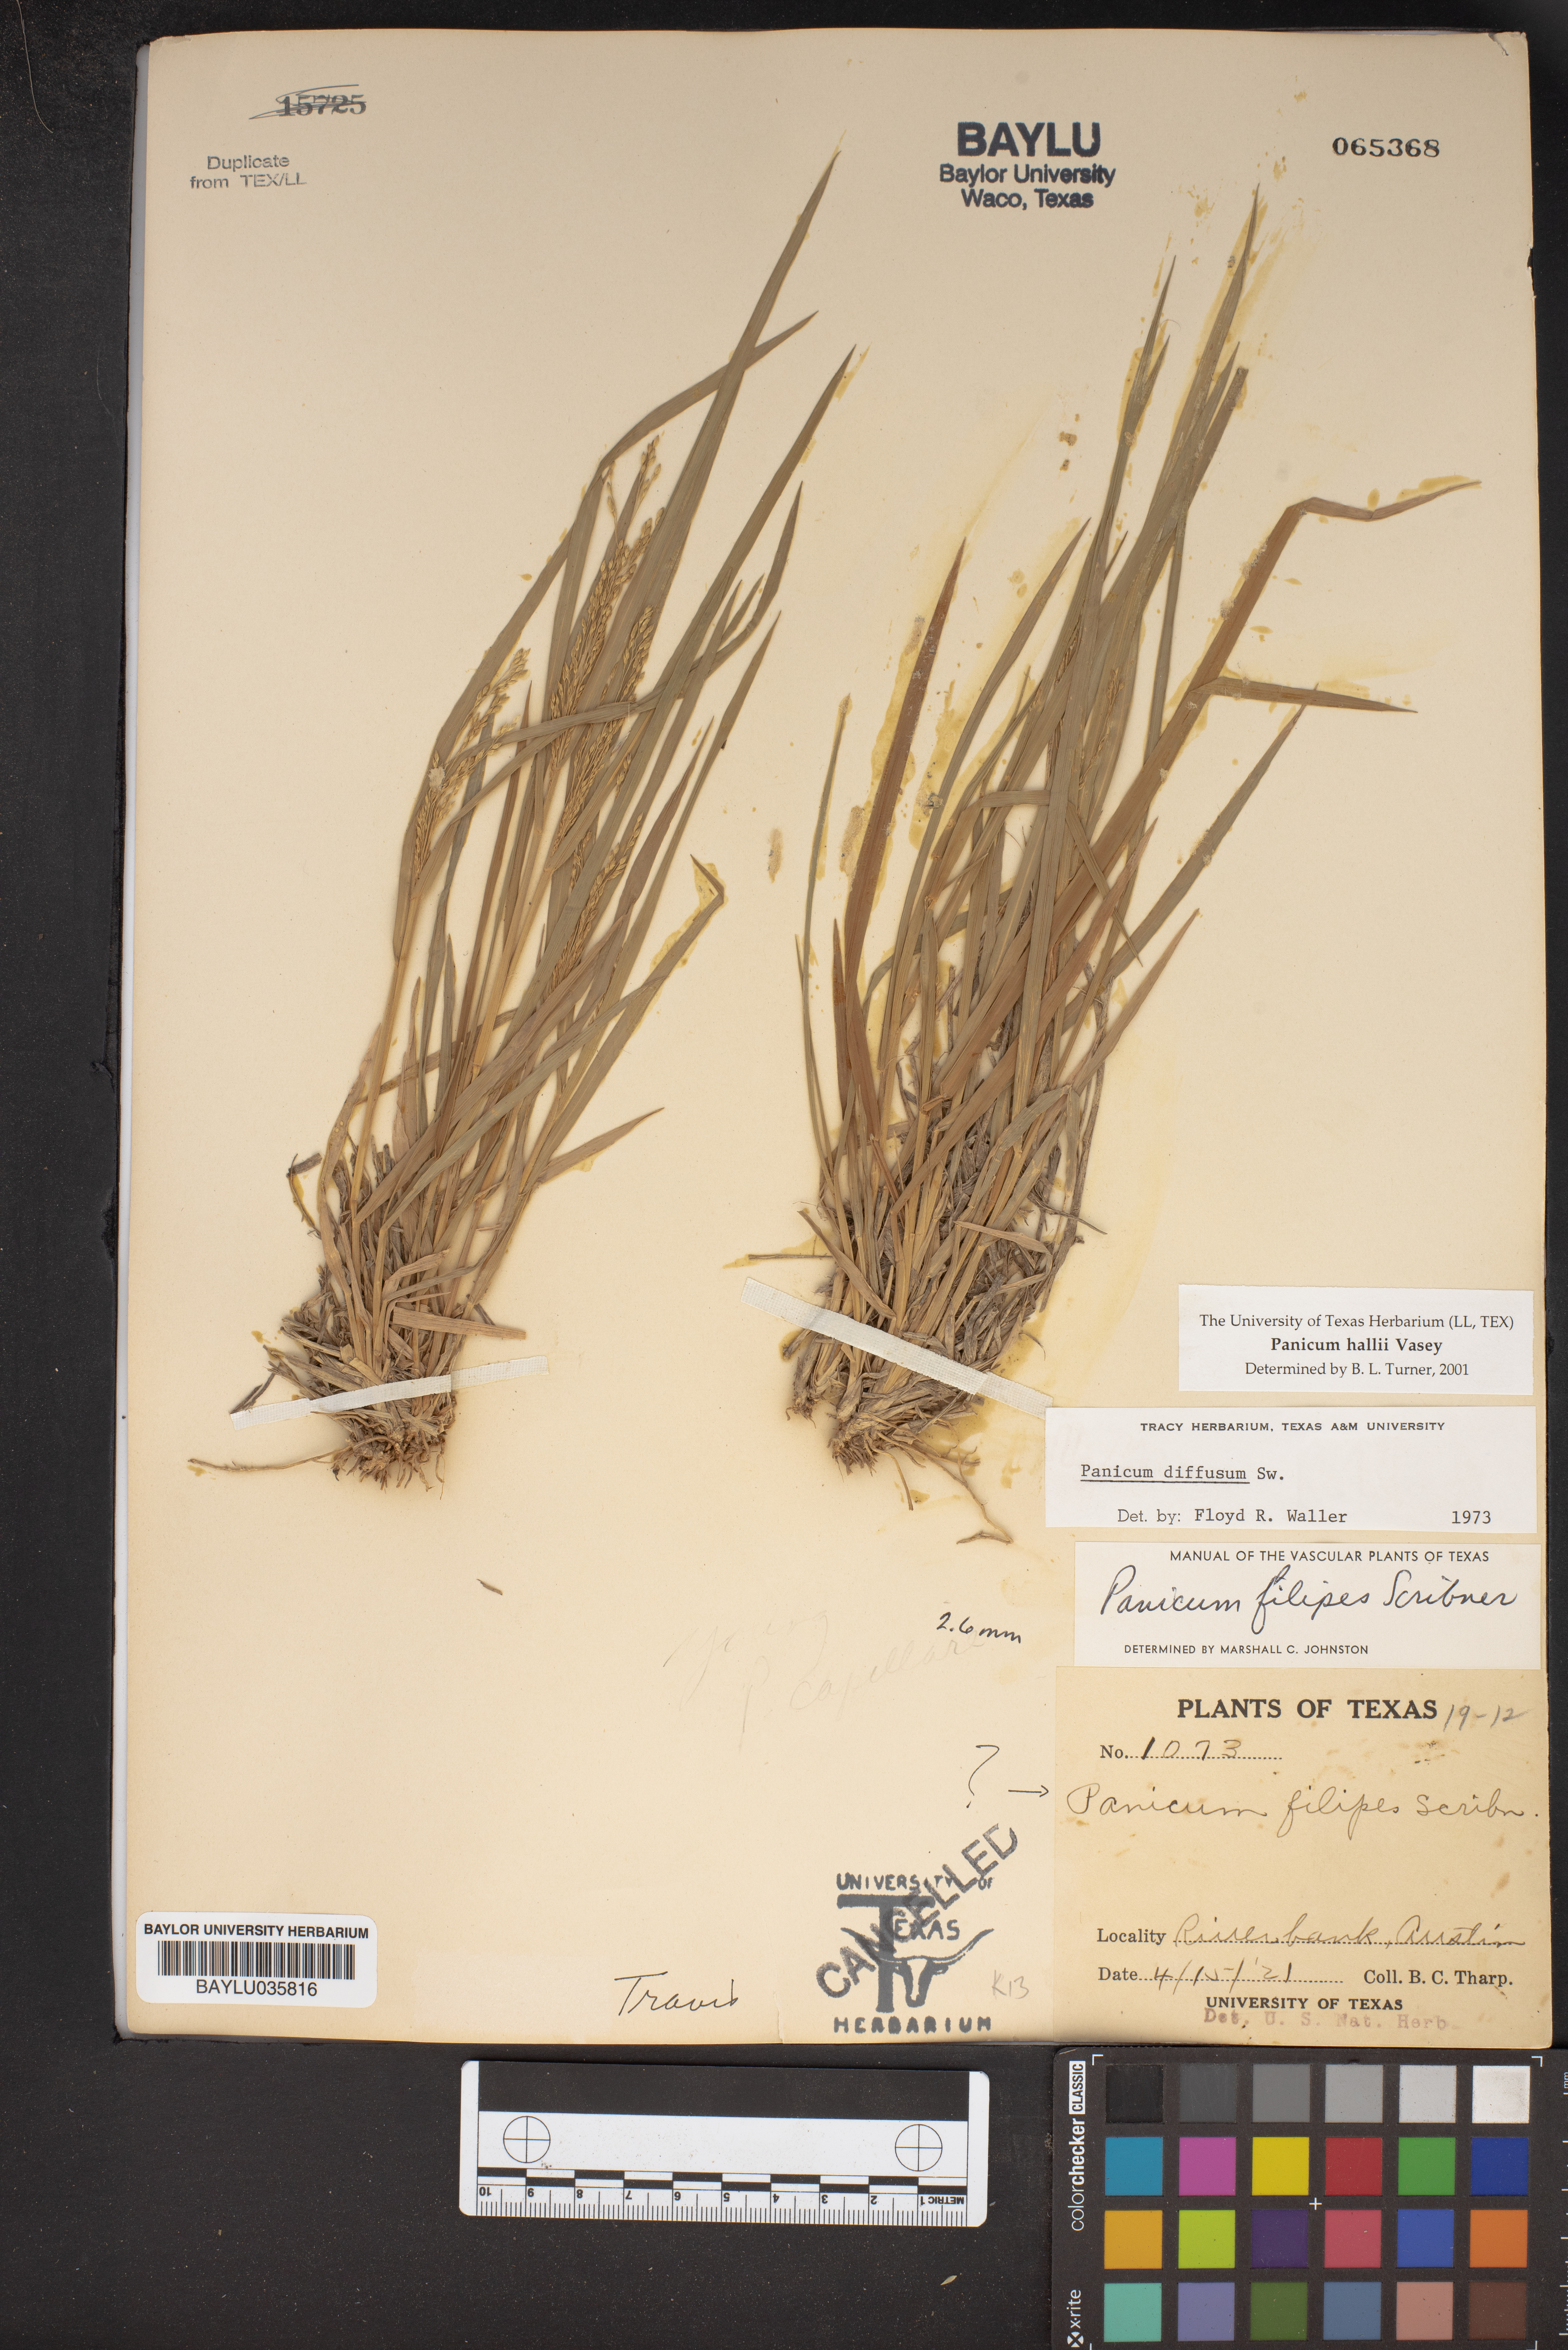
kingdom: Plantae
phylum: Tracheophyta
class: Liliopsida
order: Poales
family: Poaceae
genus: Panicum
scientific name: Panicum diffusum
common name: Spreading panicgrass
